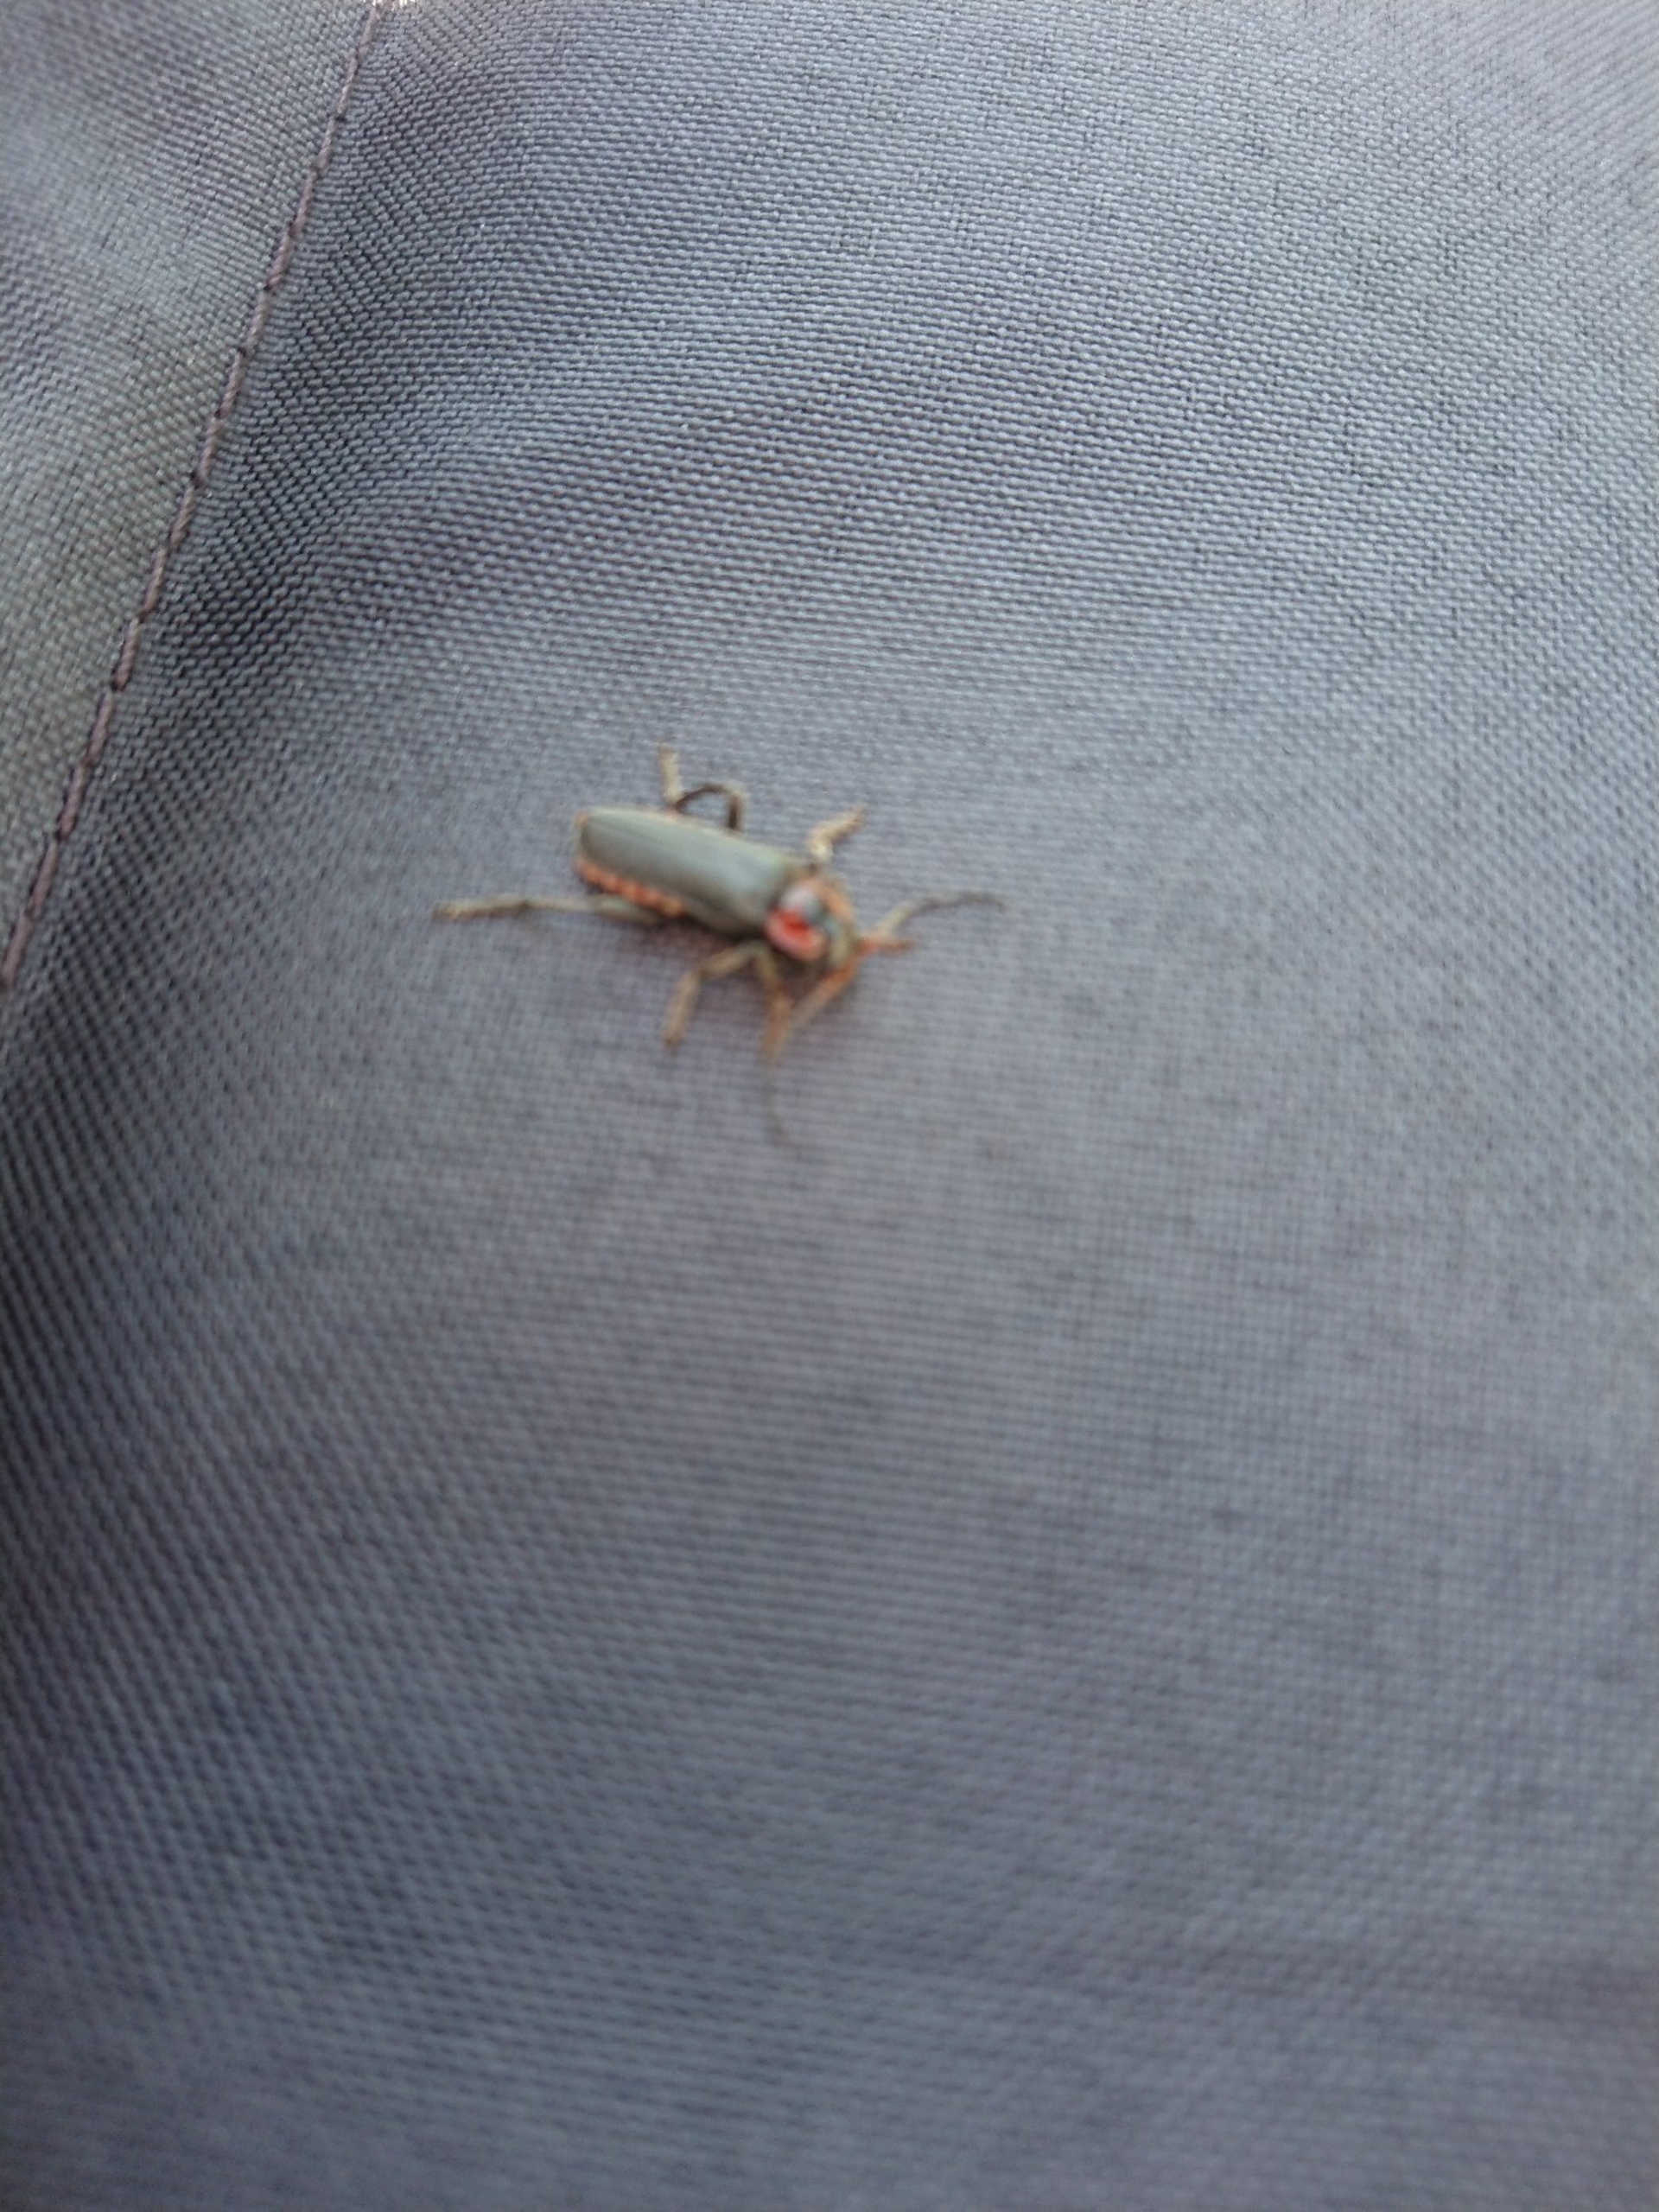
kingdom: Animalia
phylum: Arthropoda
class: Insecta
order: Coleoptera
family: Cantharidae
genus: Cantharis
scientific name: Cantharis fusca
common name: Stor blødvinge
